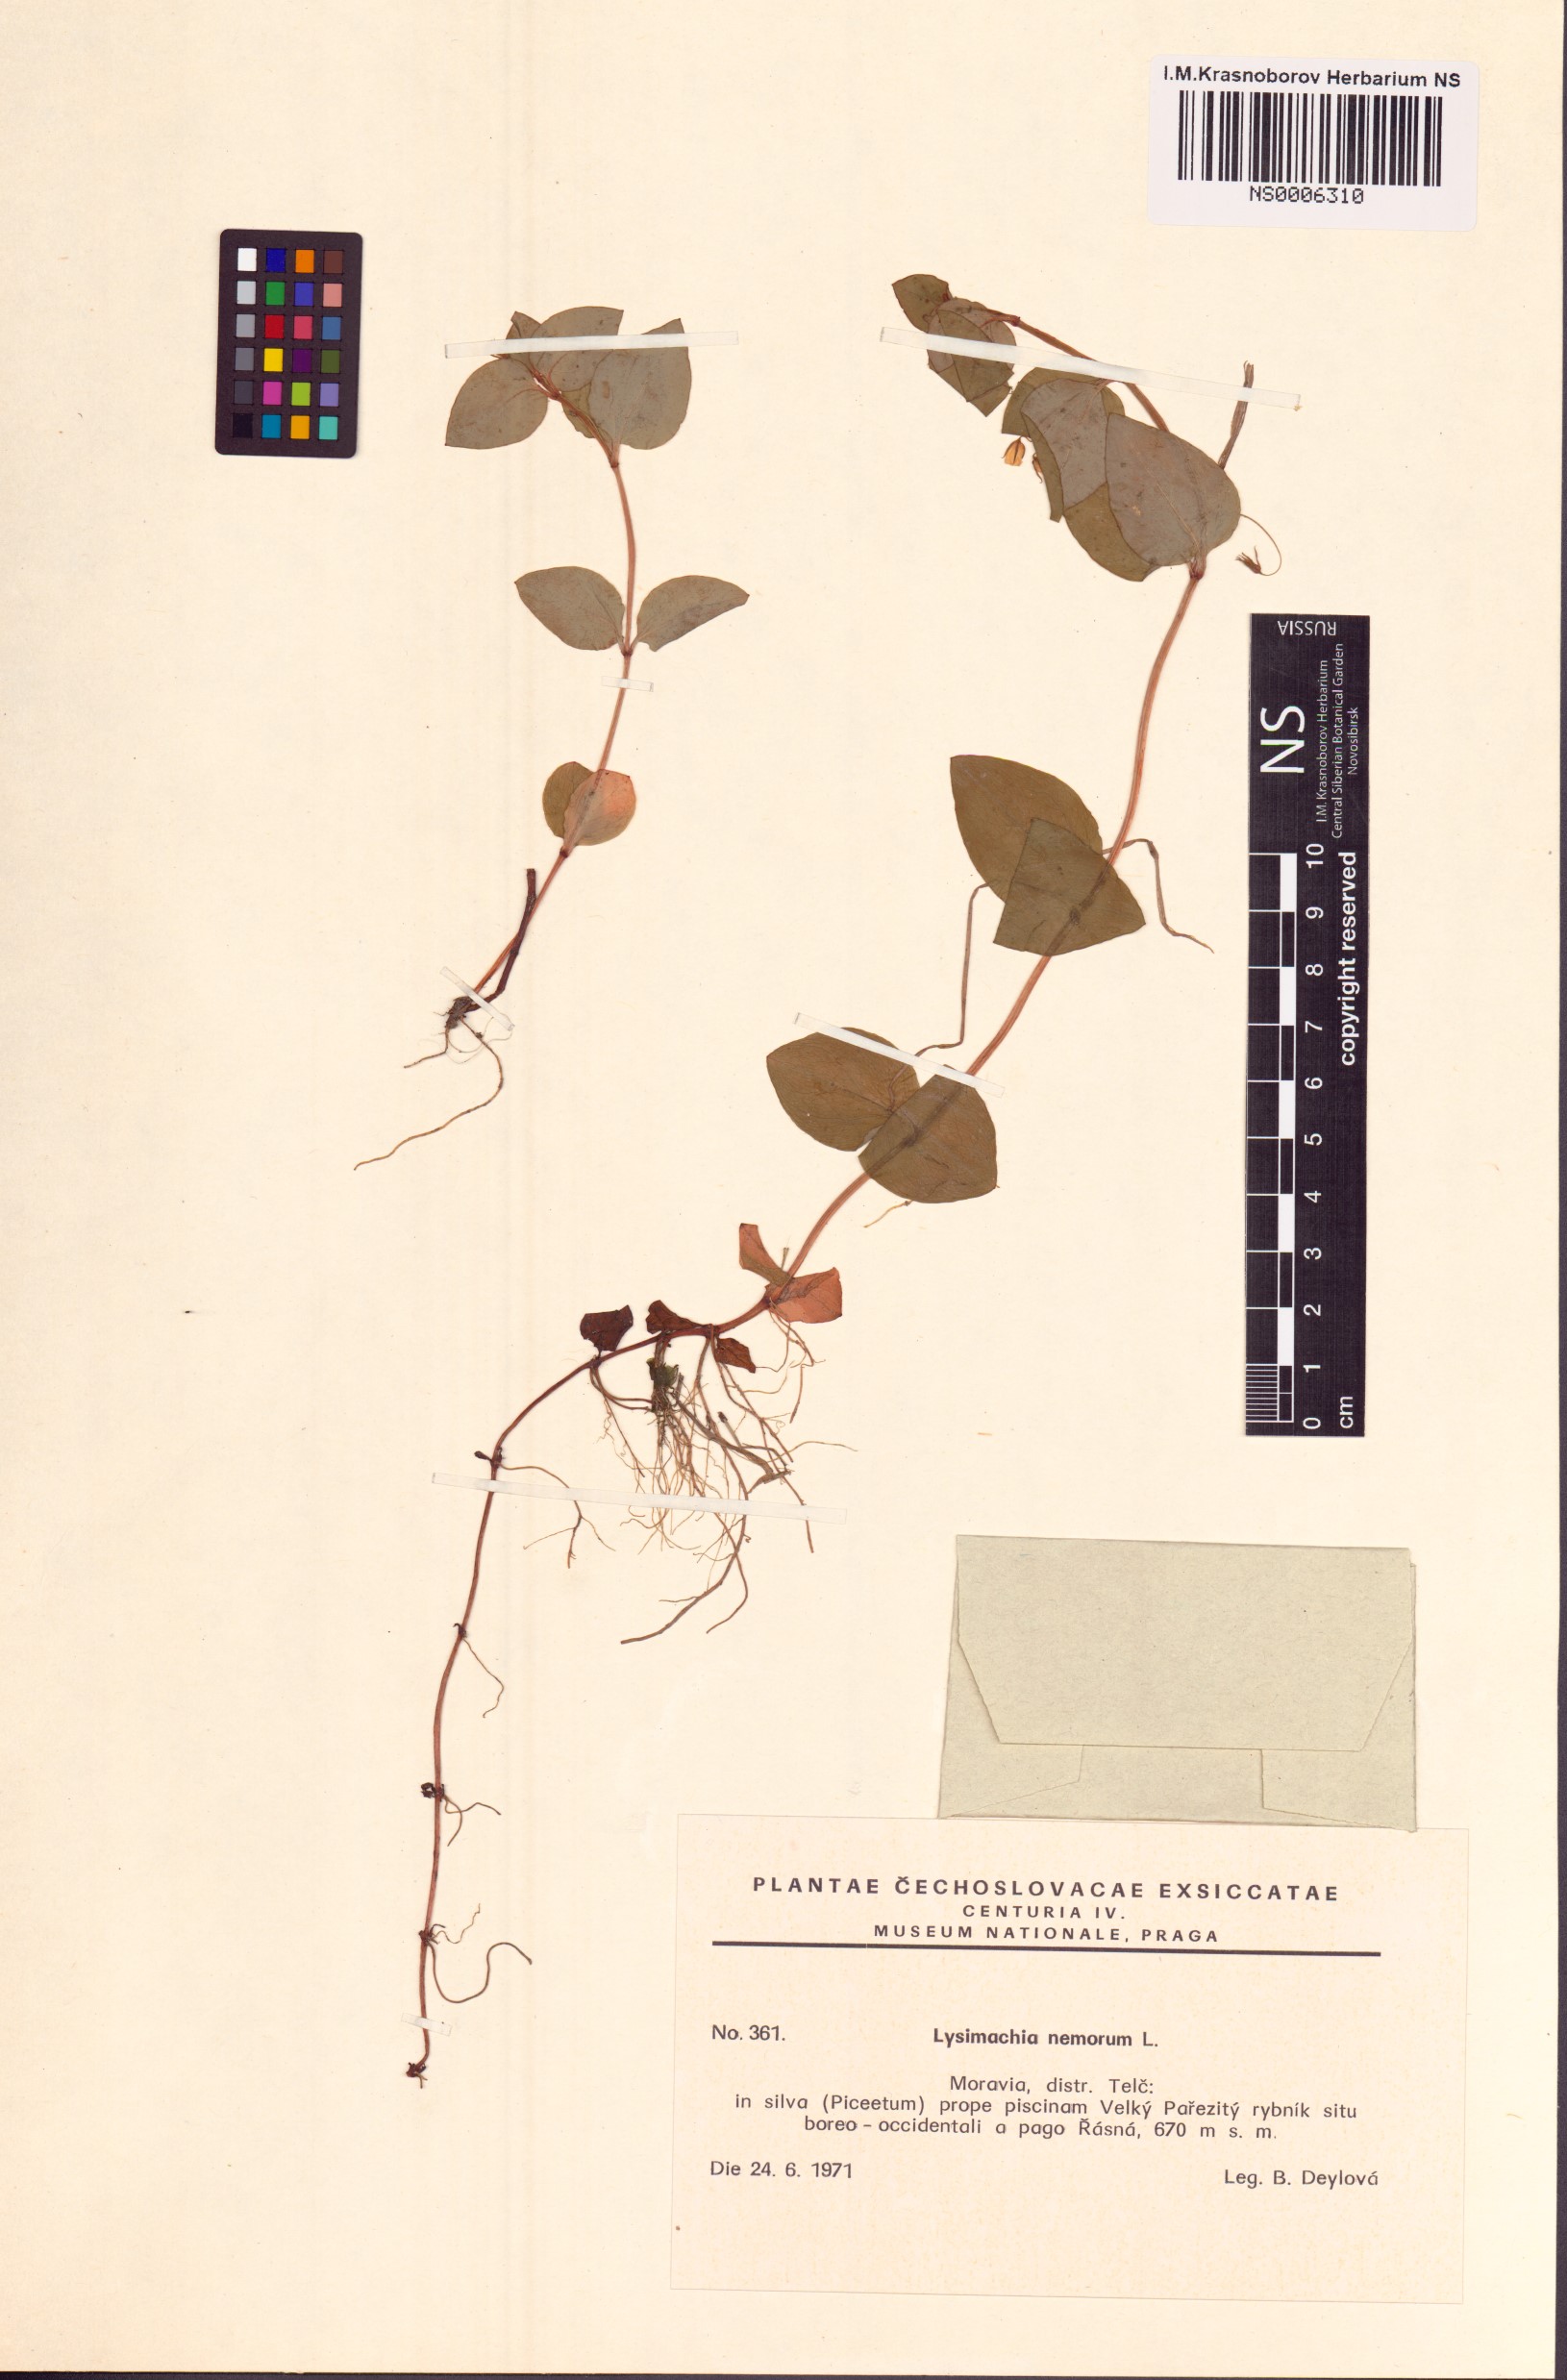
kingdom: Plantae
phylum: Tracheophyta
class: Magnoliopsida
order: Ericales
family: Primulaceae
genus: Lysimachia
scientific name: Lysimachia nemorum
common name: Yellow pimpernel
